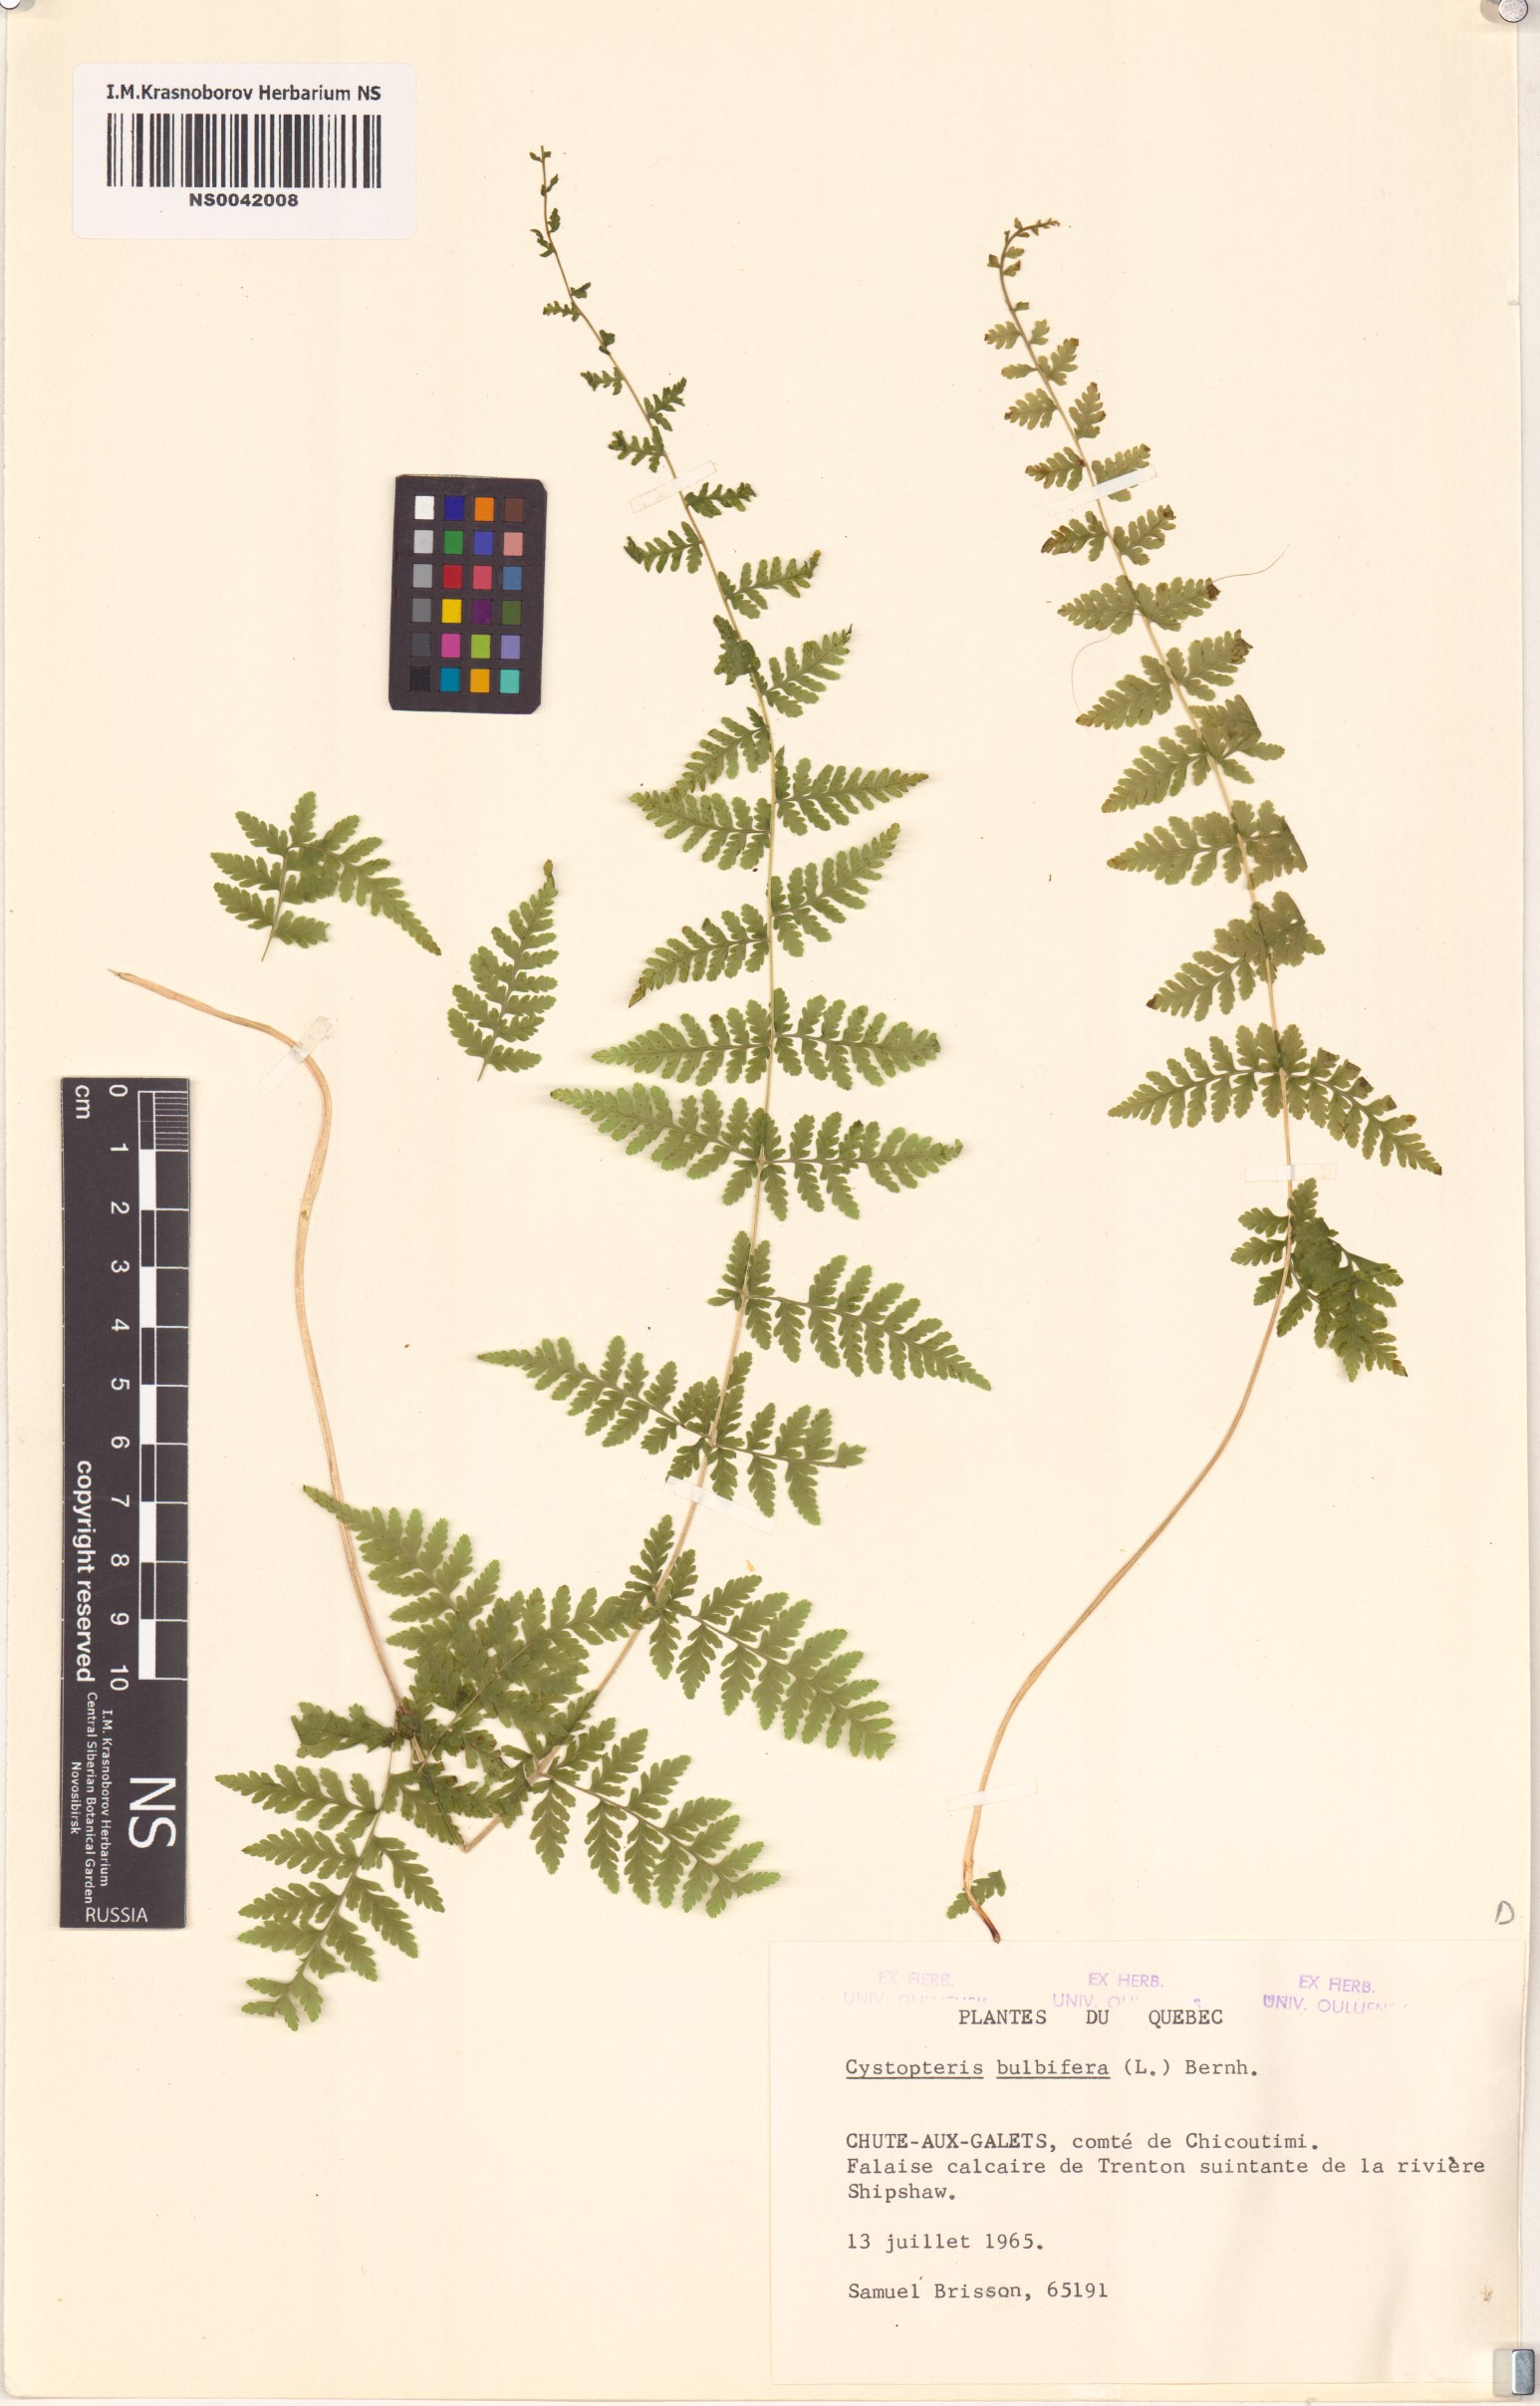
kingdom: Plantae
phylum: Tracheophyta
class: Polypodiopsida
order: Polypodiales
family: Cystopteridaceae
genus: Cystopteris
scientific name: Cystopteris bulbifera
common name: Bulblet bladder fern
